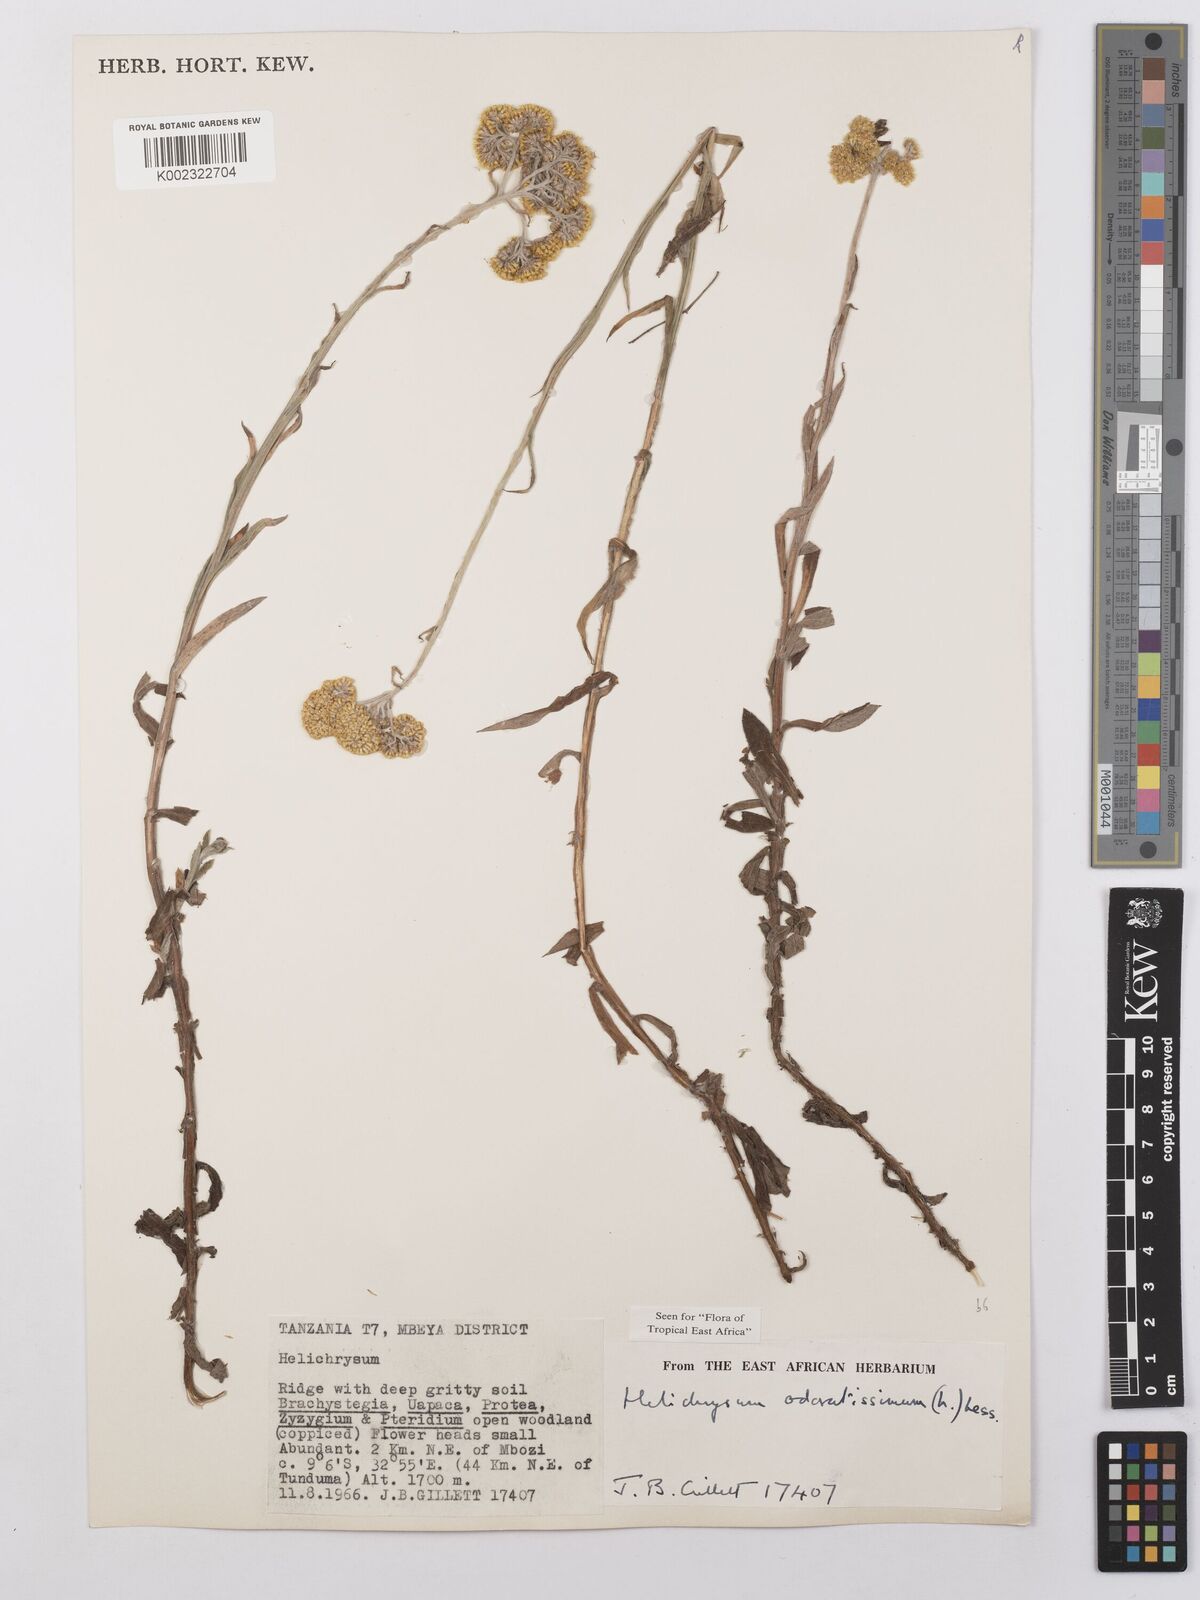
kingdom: Plantae
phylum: Tracheophyta
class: Magnoliopsida
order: Asterales
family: Asteraceae
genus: Helichrysum
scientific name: Helichrysum odoratissimum
